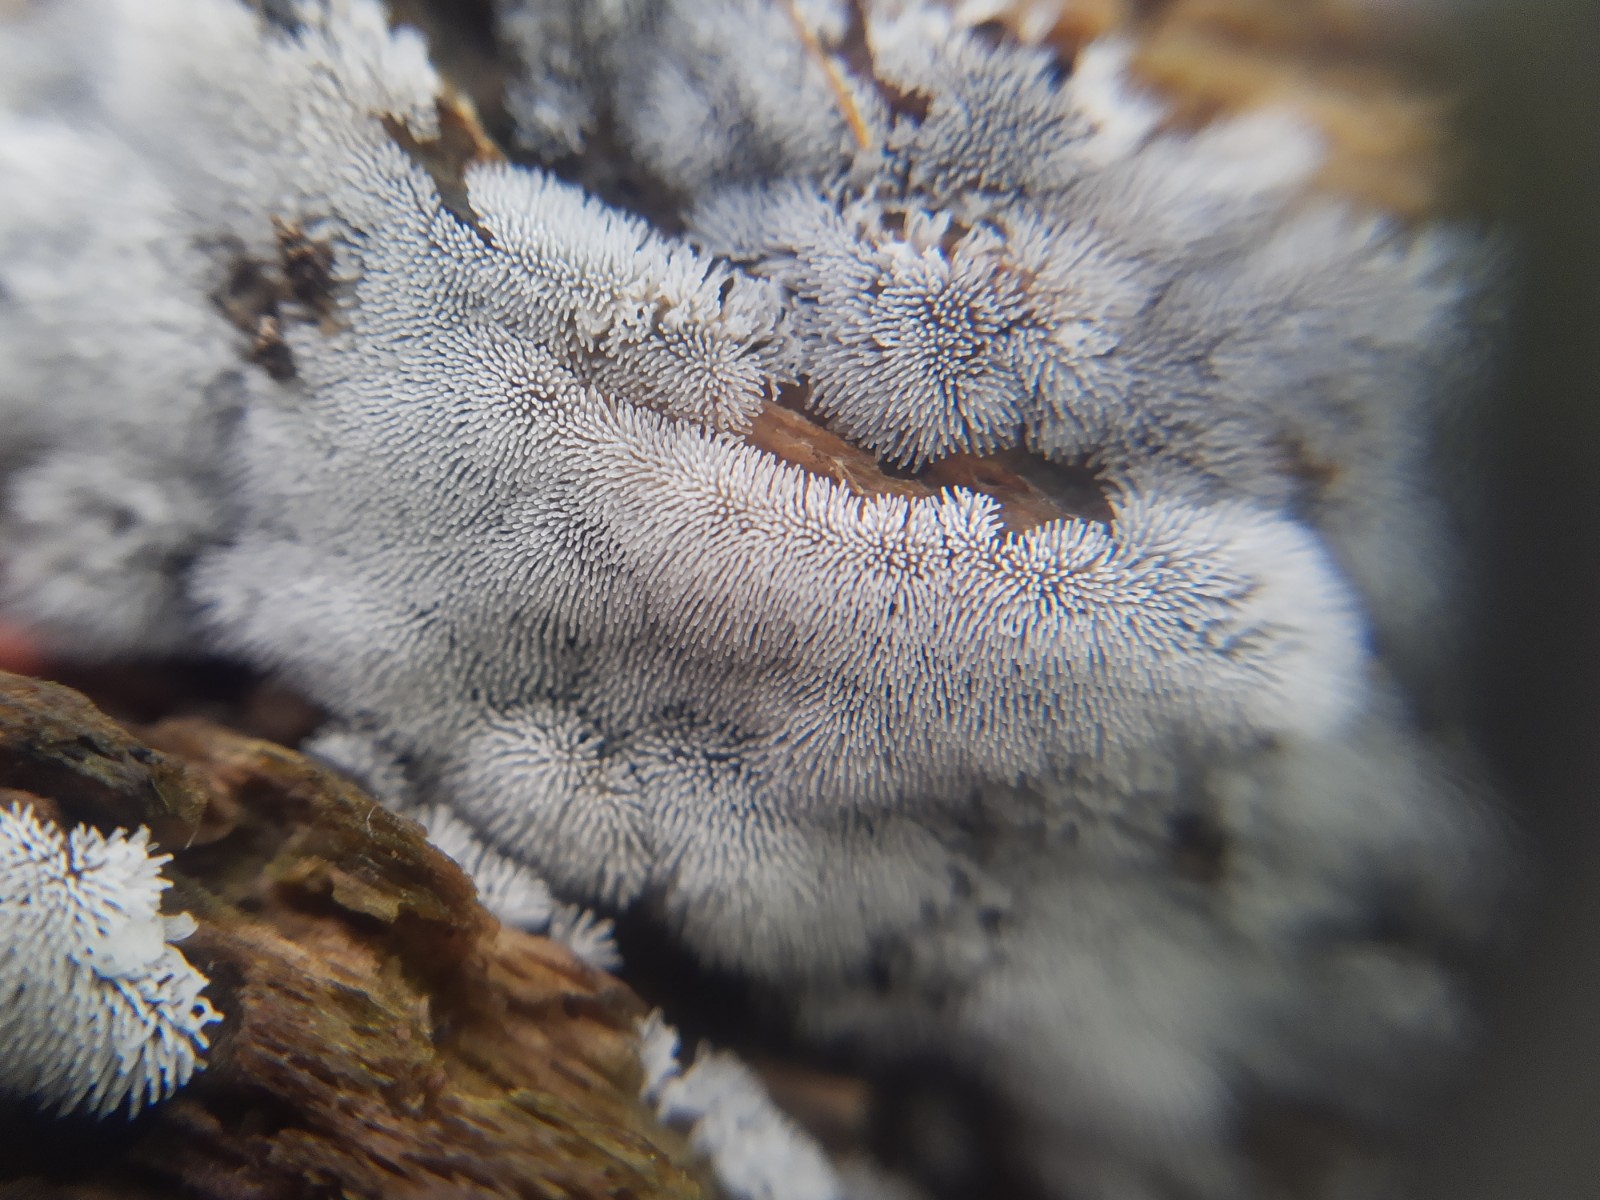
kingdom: Protozoa
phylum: Mycetozoa
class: Protosteliomycetes
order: Ceratiomyxales
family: Ceratiomyxaceae
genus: Ceratiomyxa
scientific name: Ceratiomyxa fruticulosa
